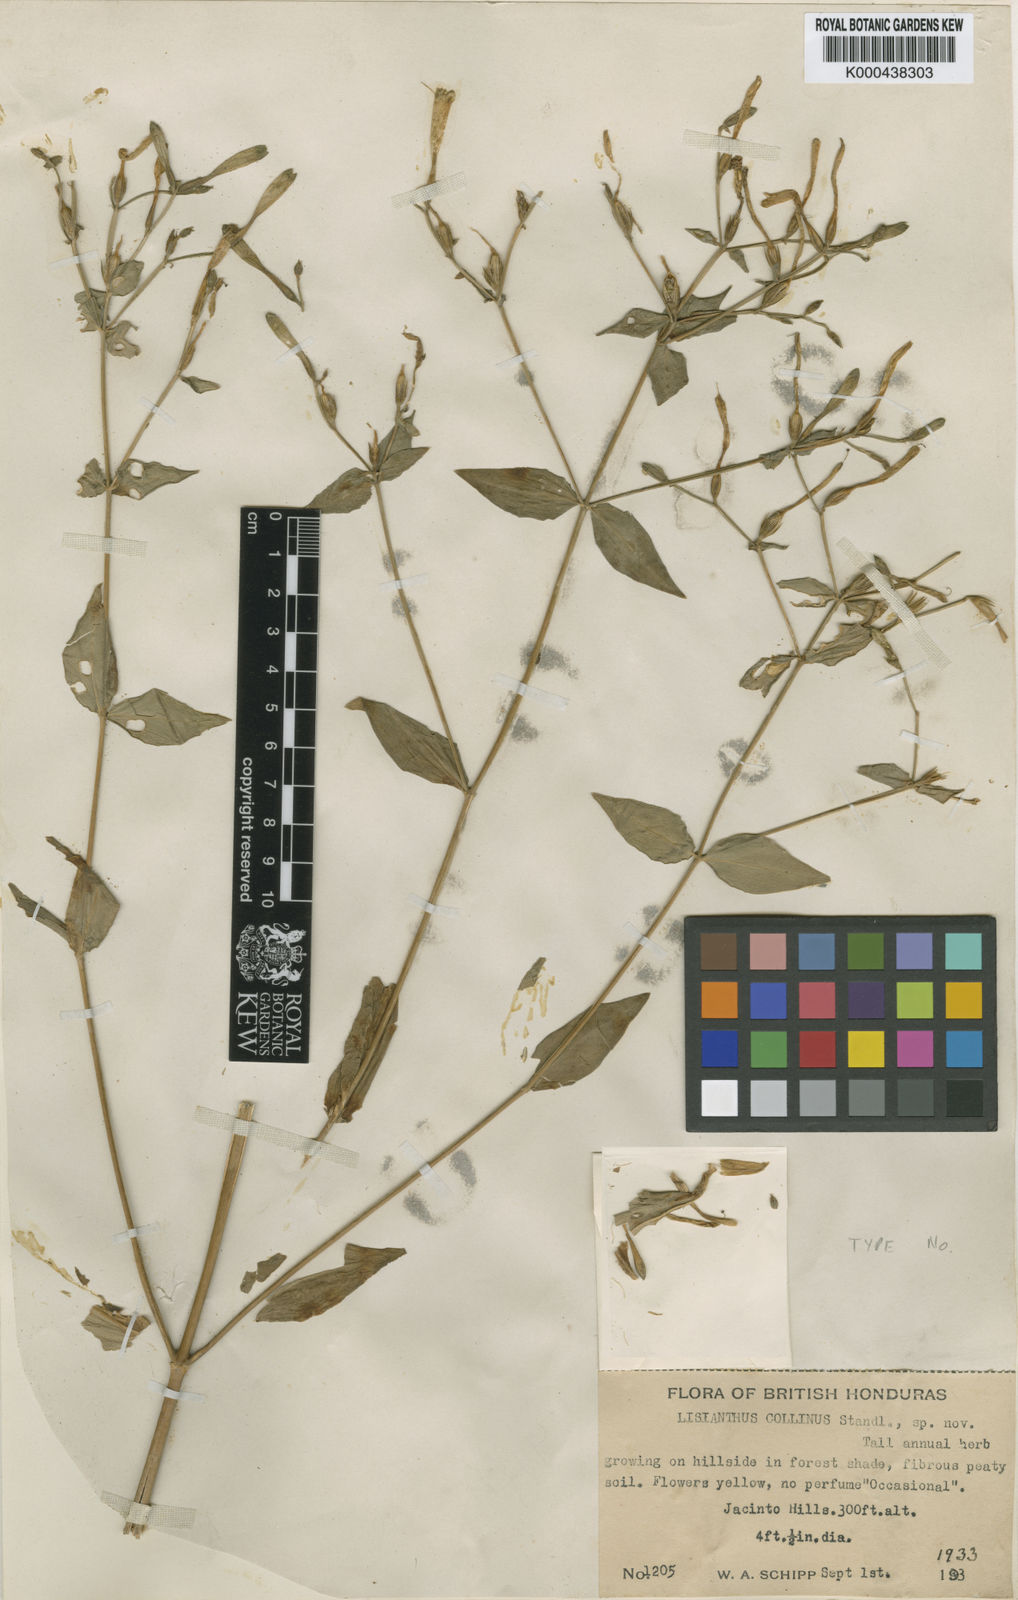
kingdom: Plantae
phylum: Tracheophyta
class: Magnoliopsida
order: Gentianales
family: Gentianaceae
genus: Lisianthus
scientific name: Lisianthus brevidentatus
